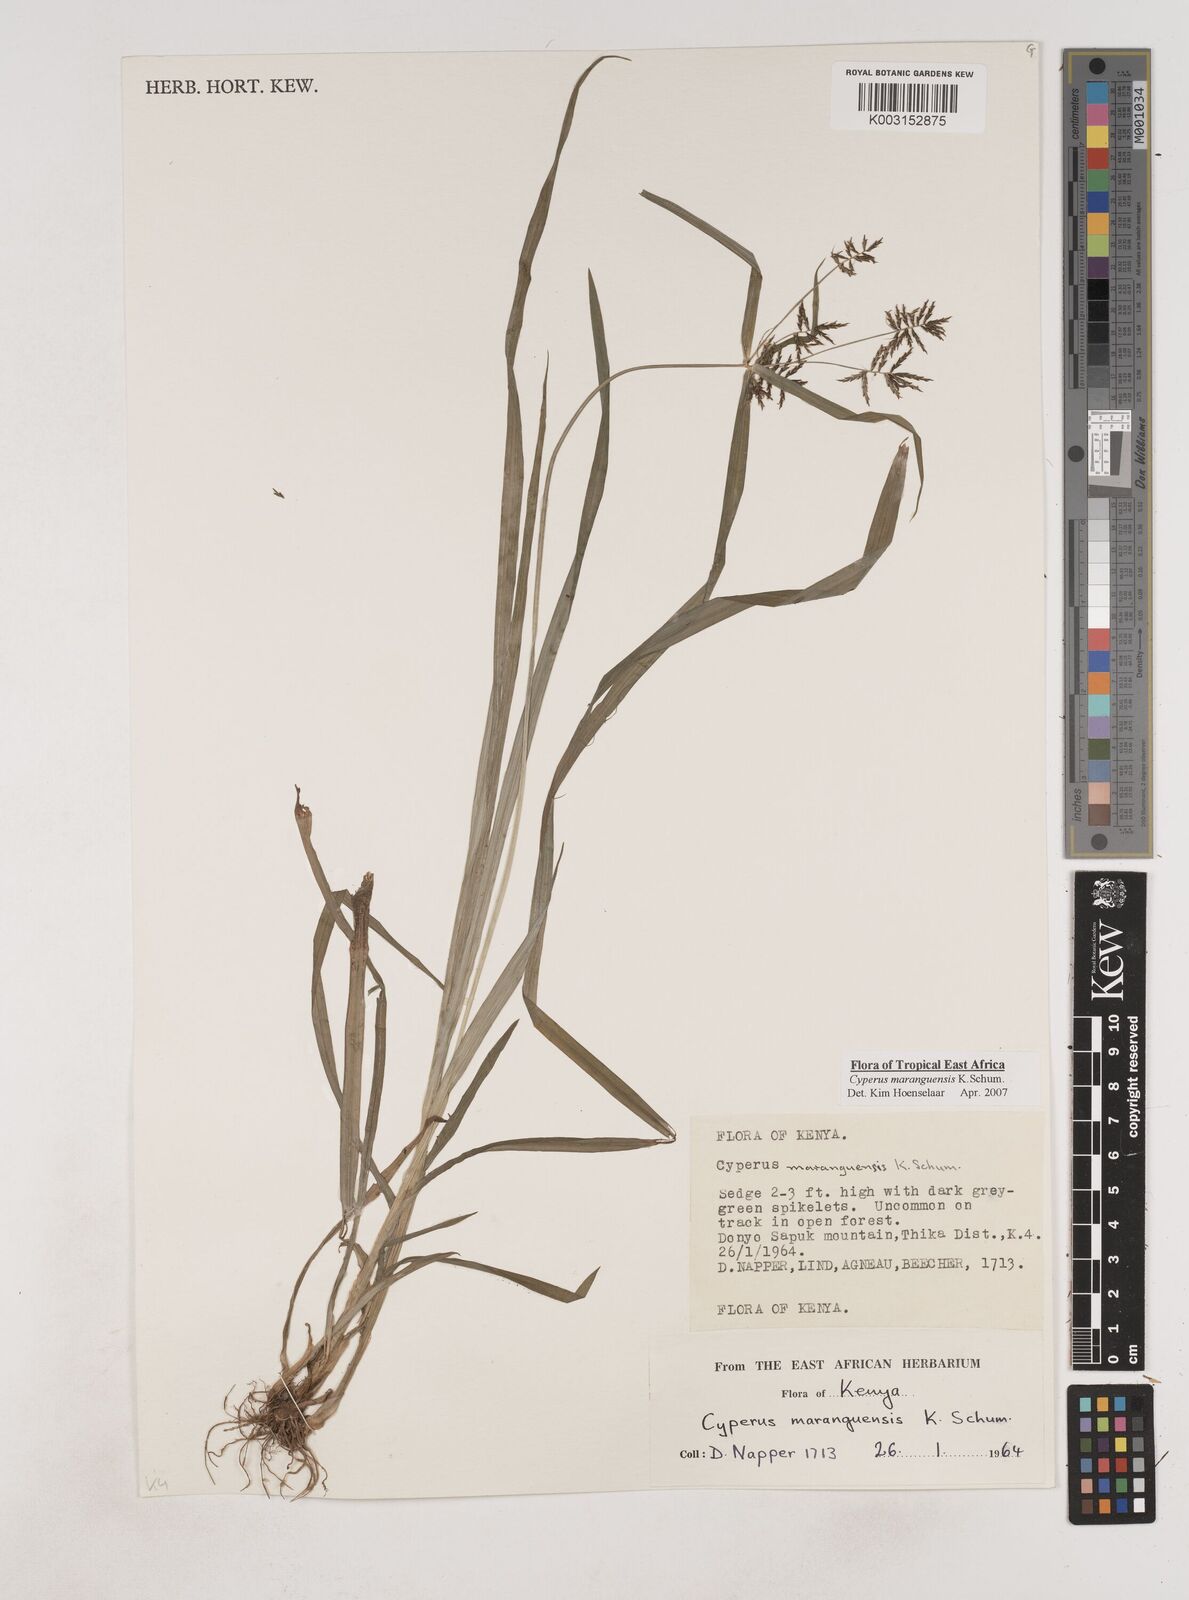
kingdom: Plantae
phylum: Tracheophyta
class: Liliopsida
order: Poales
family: Cyperaceae
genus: Cyperus
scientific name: Cyperus maranguensis
